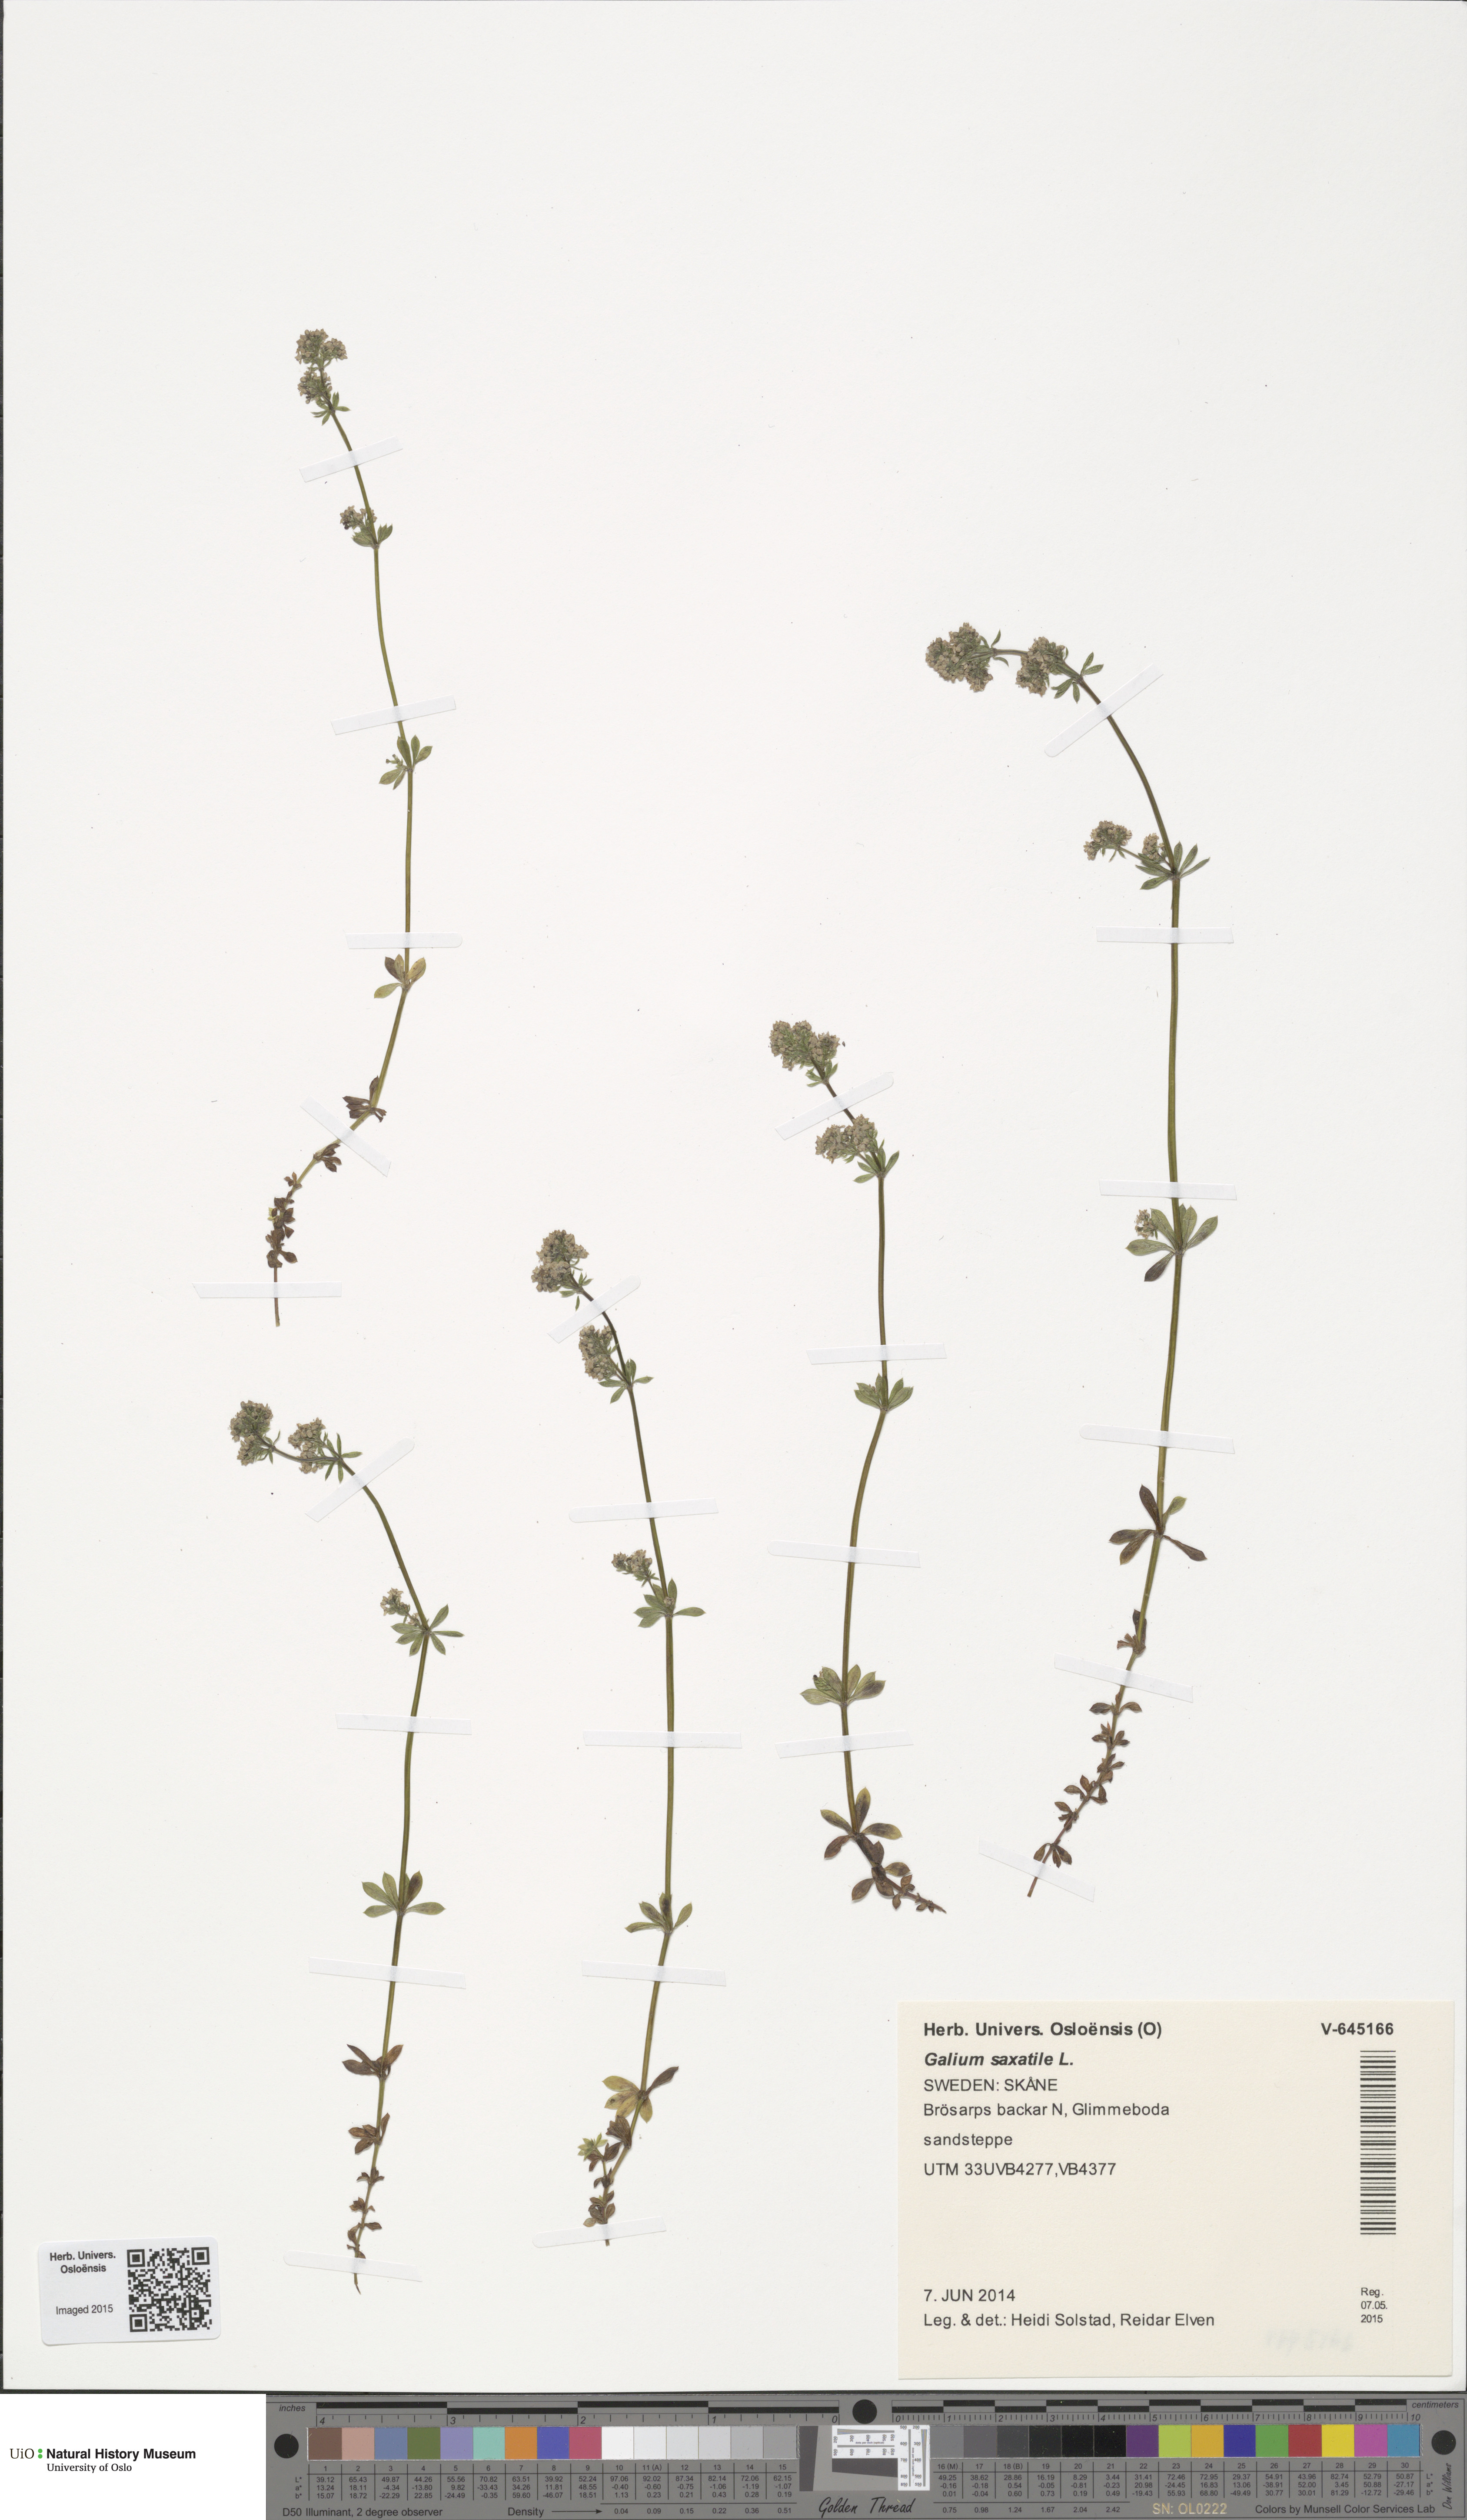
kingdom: Plantae
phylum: Tracheophyta
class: Magnoliopsida
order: Gentianales
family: Rubiaceae
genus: Galium
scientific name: Galium saxatile
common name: Heath bedstraw
